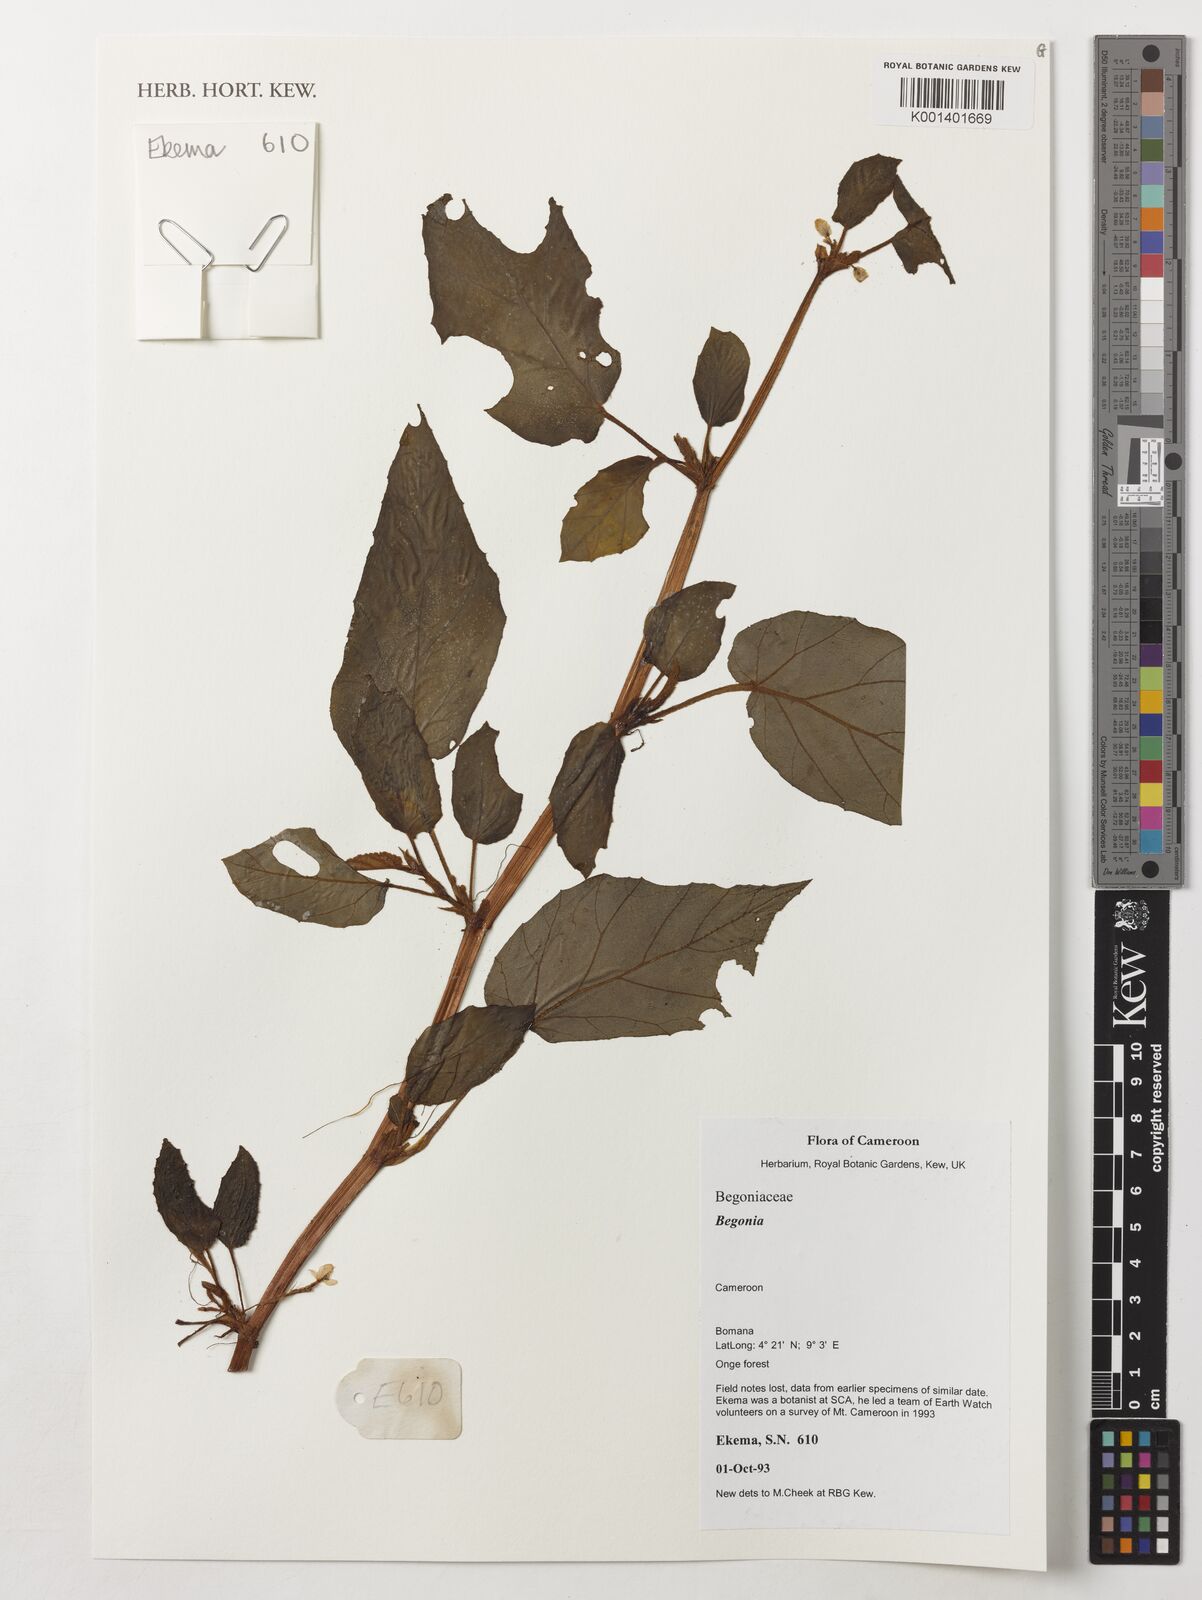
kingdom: Plantae
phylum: Tracheophyta
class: Magnoliopsida
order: Cucurbitales
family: Begoniaceae
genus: Begonia
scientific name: Begonia
